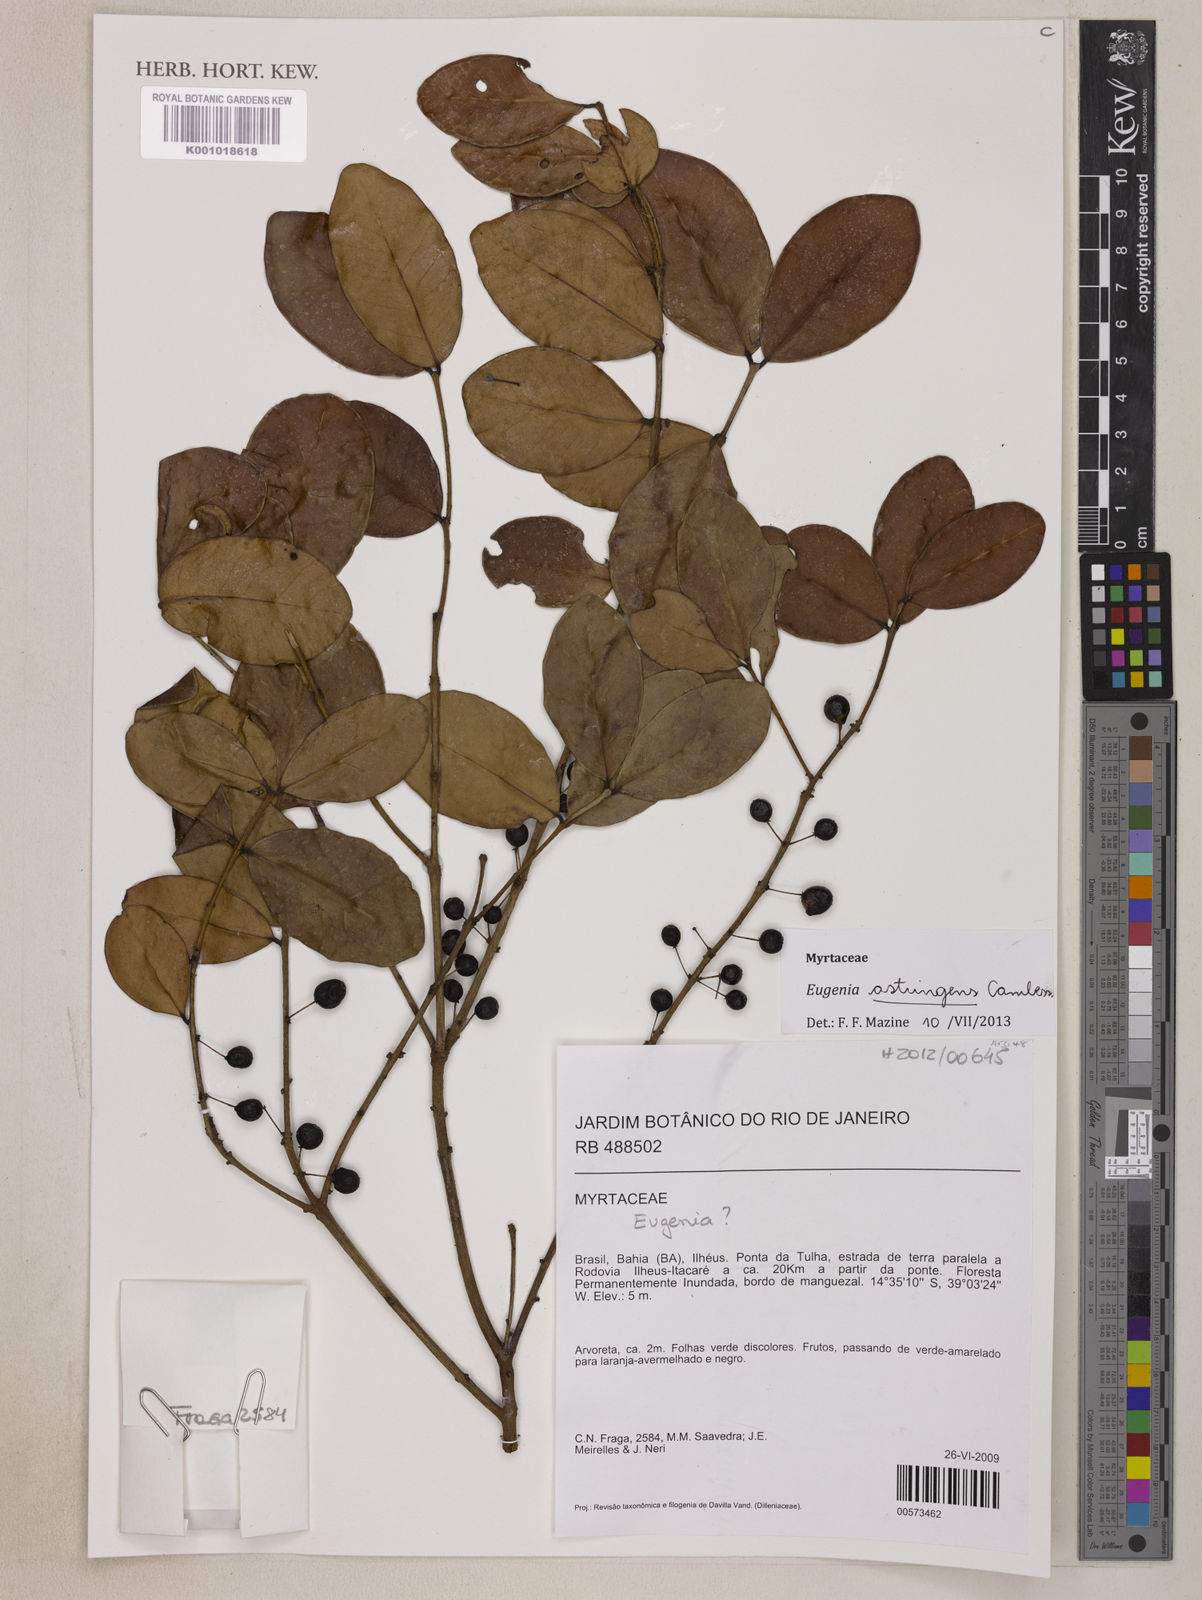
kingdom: Plantae
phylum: Tracheophyta
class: Magnoliopsida
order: Myrtales
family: Myrtaceae
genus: Eugenia
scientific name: Eugenia astringens
